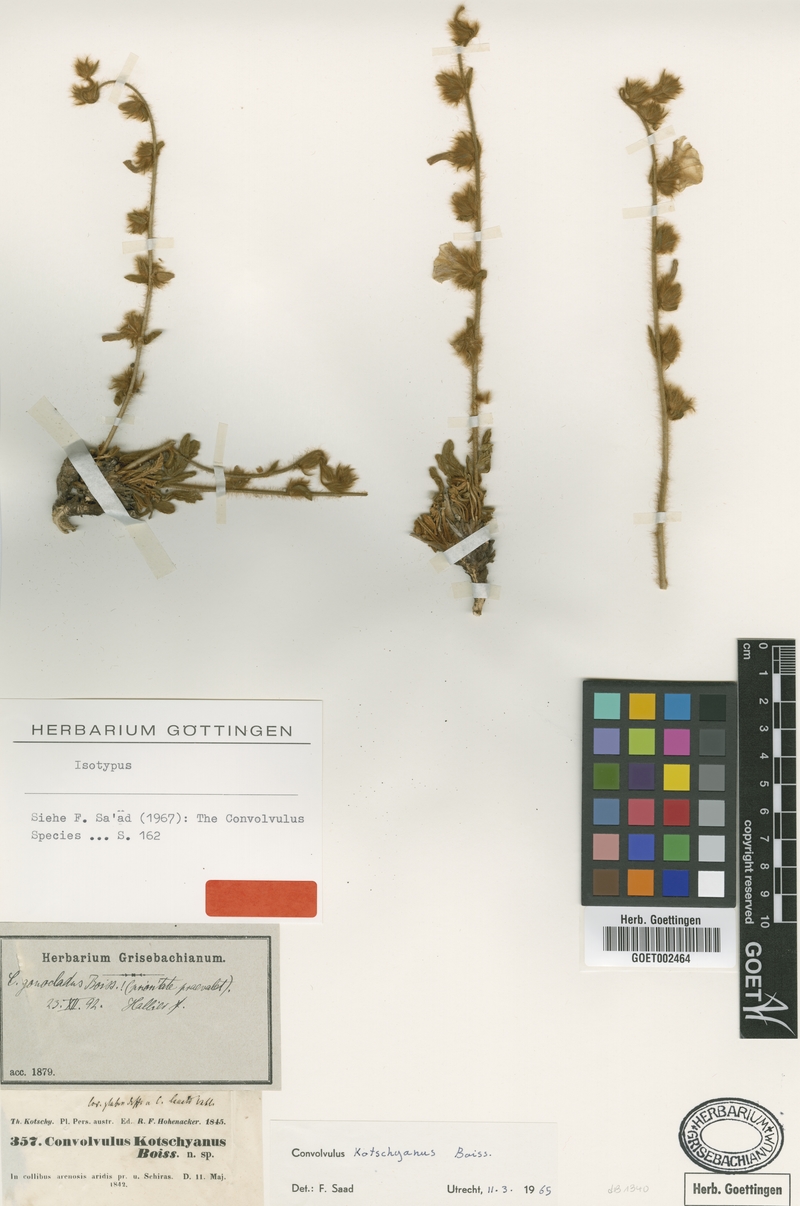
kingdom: Plantae
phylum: Tracheophyta
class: Magnoliopsida
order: Solanales
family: Convolvulaceae
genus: Convolvulus
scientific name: Convolvulus kotschyanus
